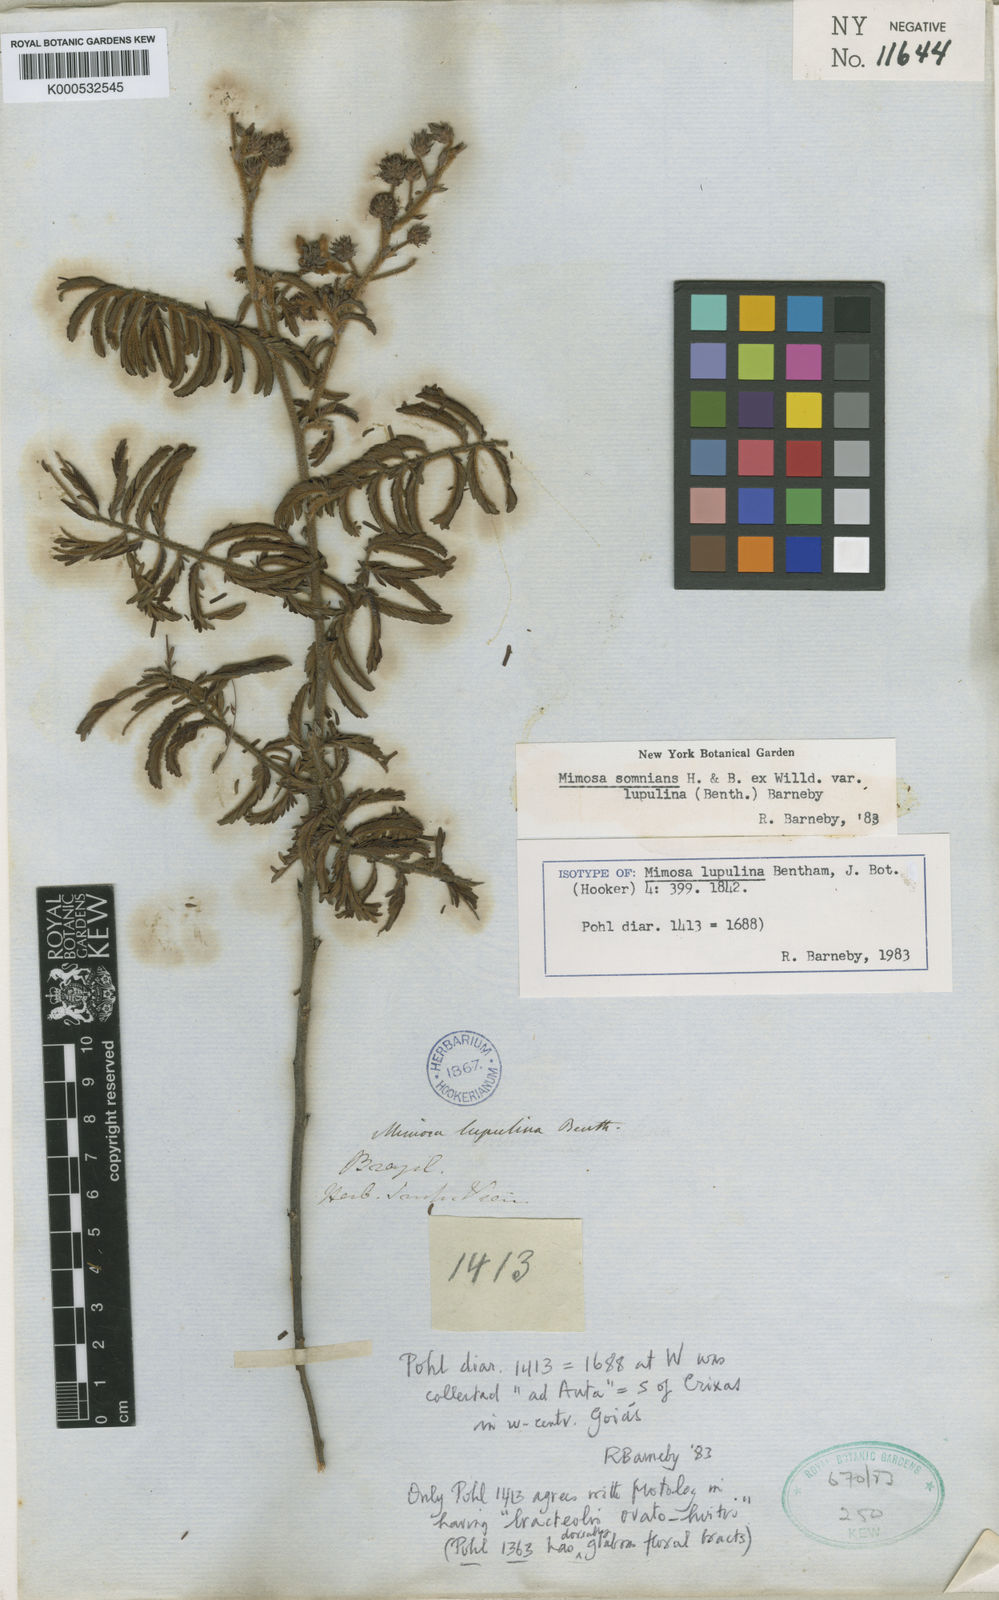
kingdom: Plantae
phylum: Tracheophyta
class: Magnoliopsida
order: Fabales
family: Fabaceae
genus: Mimosa
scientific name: Mimosa somnians
